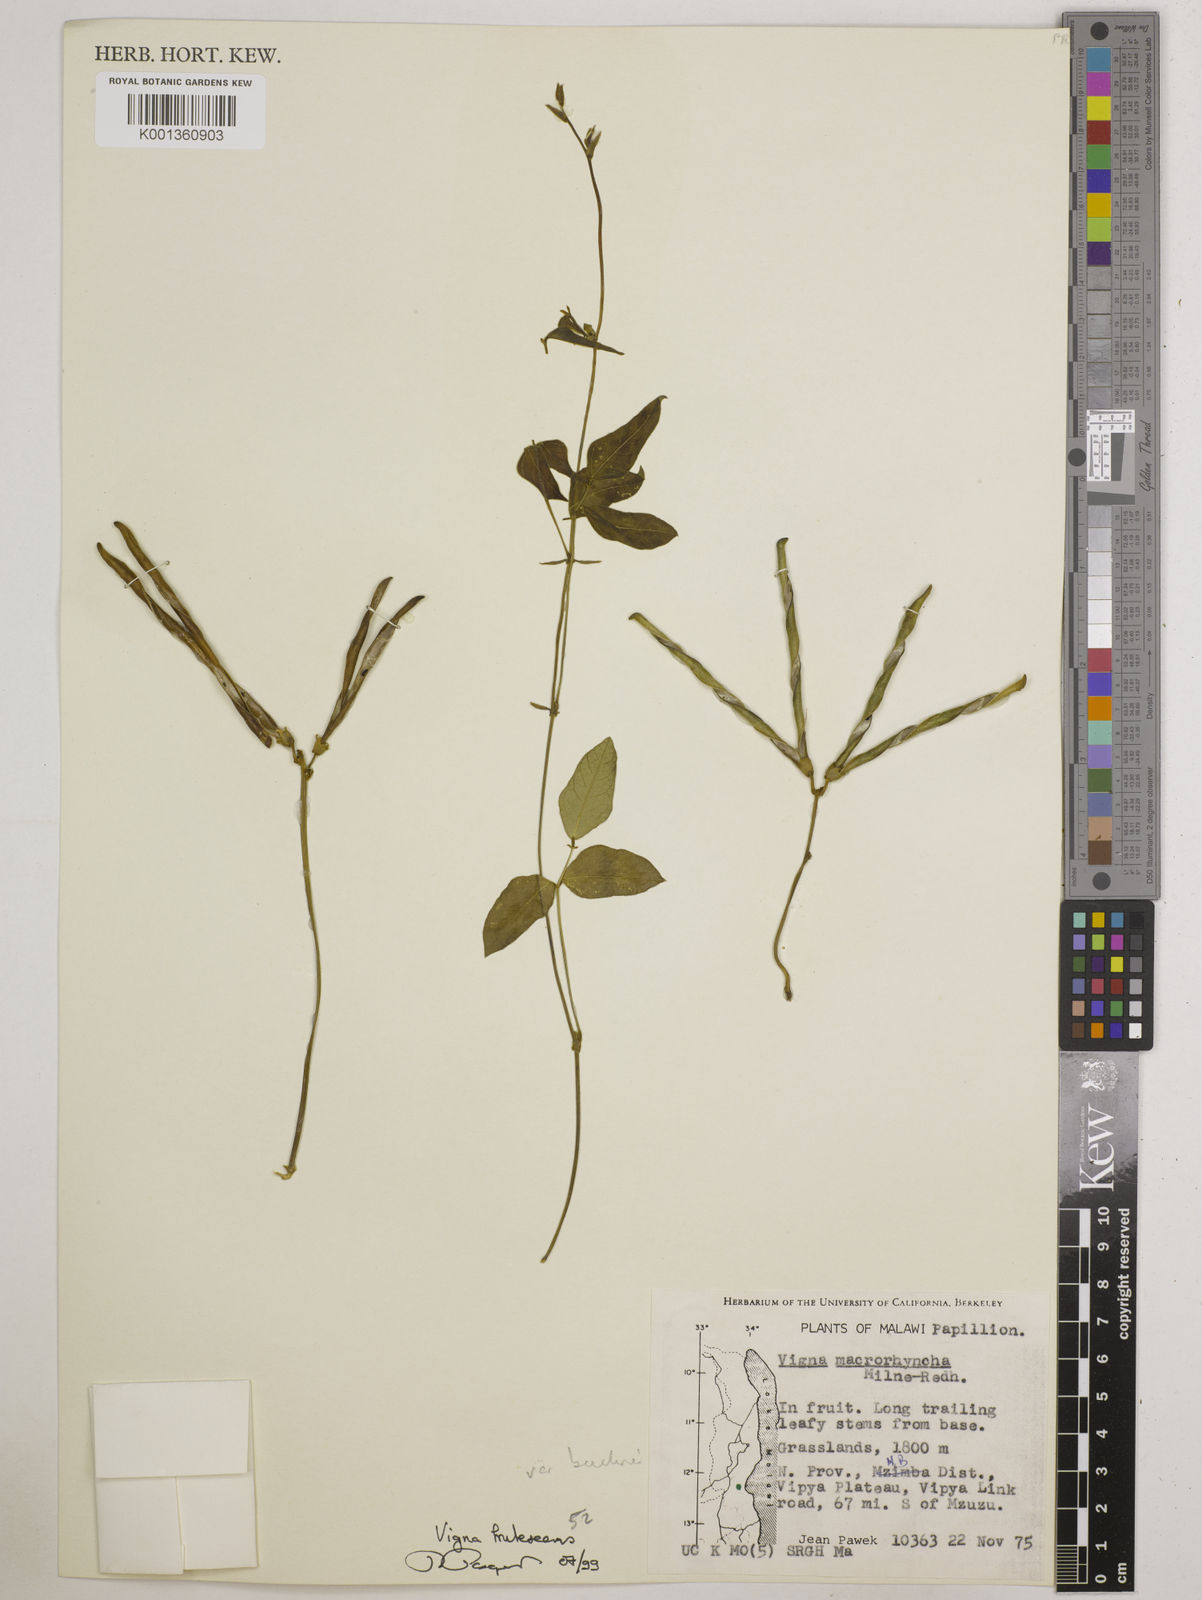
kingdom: Plantae
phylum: Tracheophyta
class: Magnoliopsida
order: Fabales
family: Fabaceae
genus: Vigna
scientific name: Vigna
